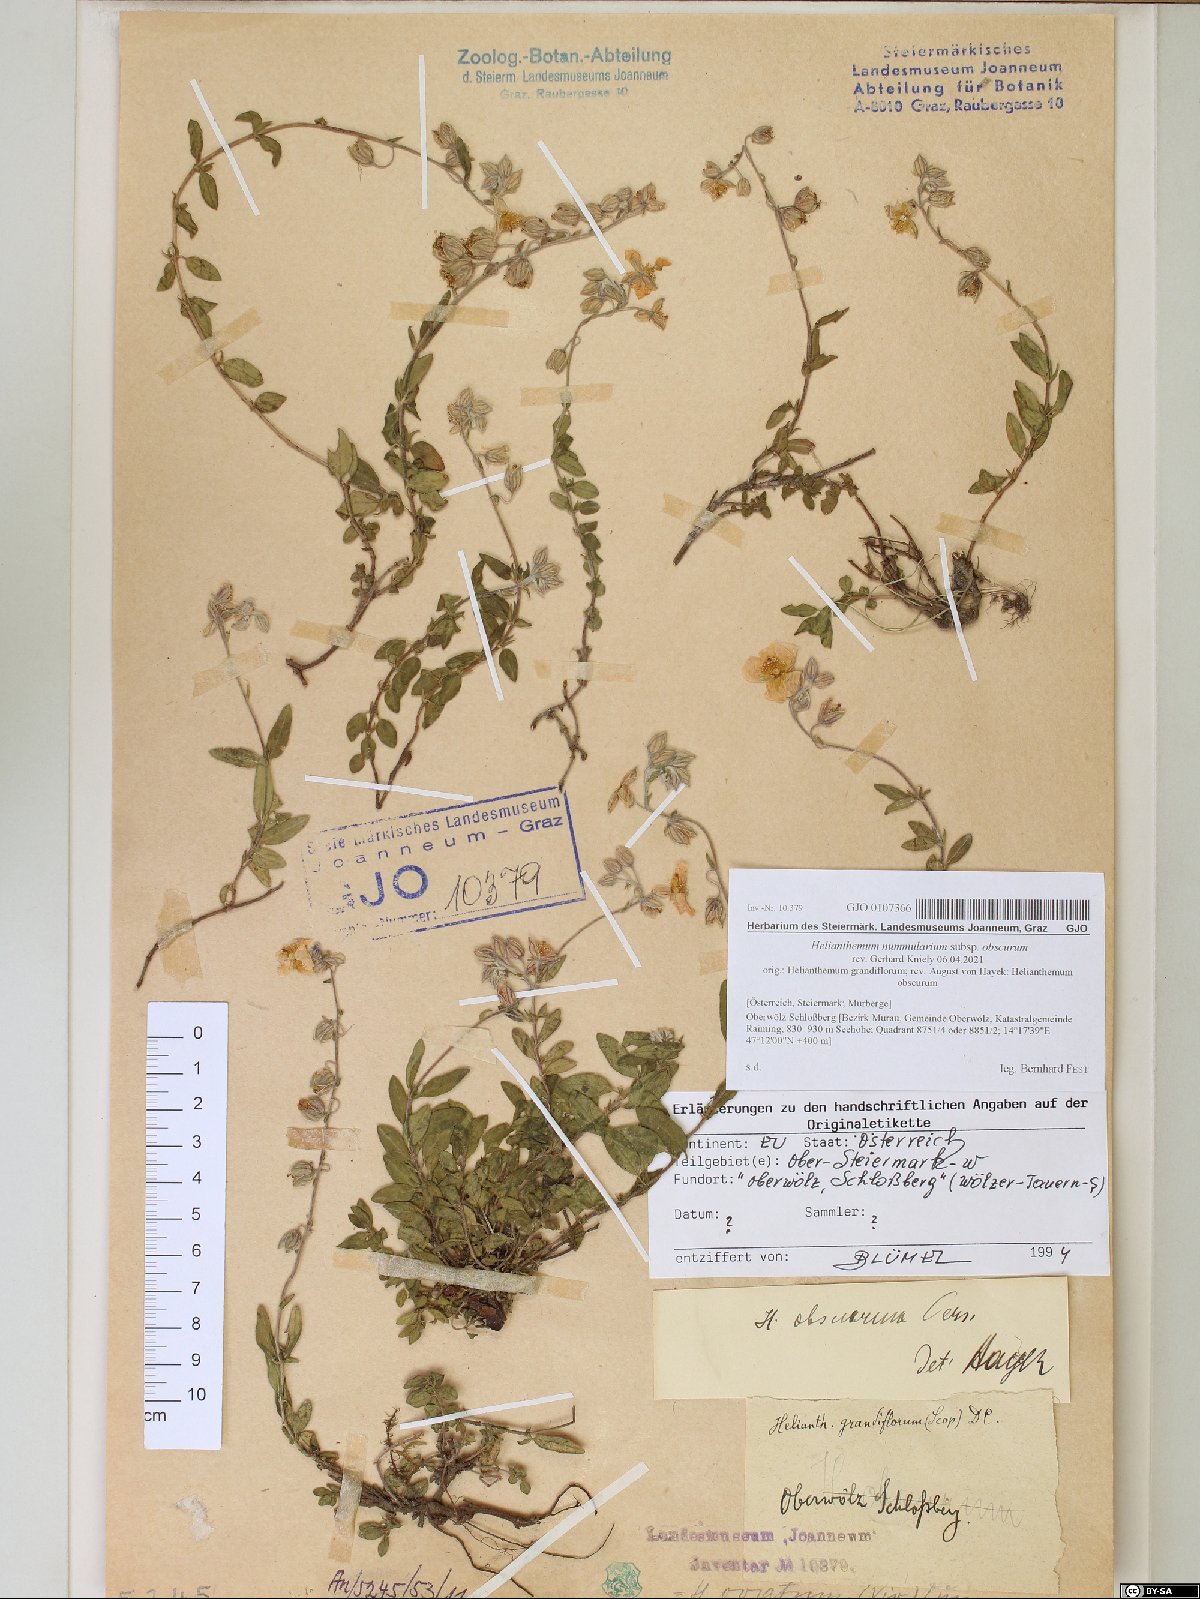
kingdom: Plantae
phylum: Tracheophyta
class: Magnoliopsida
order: Malvales
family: Cistaceae
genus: Helianthemum
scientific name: Helianthemum nummularium
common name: Common rock-rose
